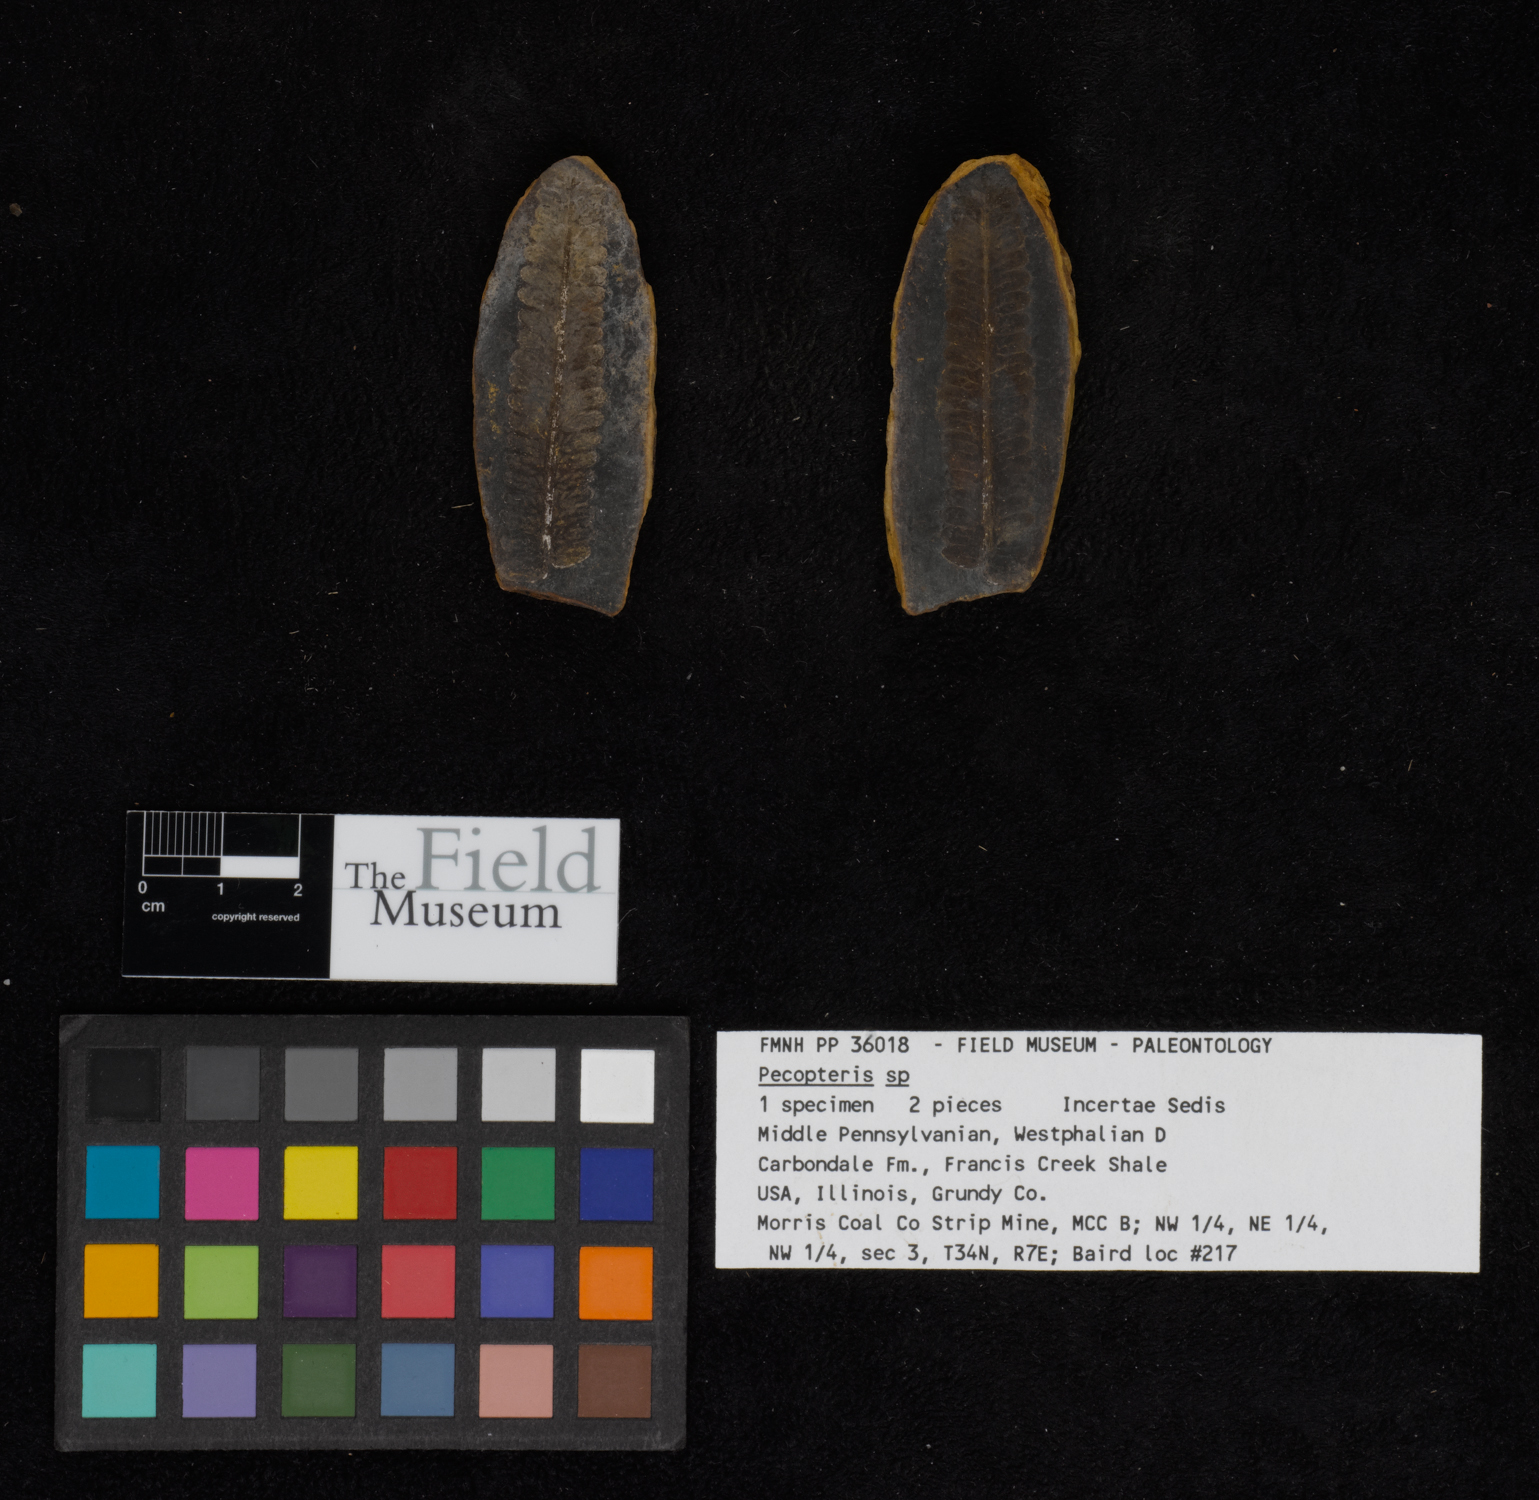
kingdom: Plantae
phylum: Tracheophyta
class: Polypodiopsida
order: Marattiales
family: Asterothecaceae
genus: Pecopteris
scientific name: Pecopteris
